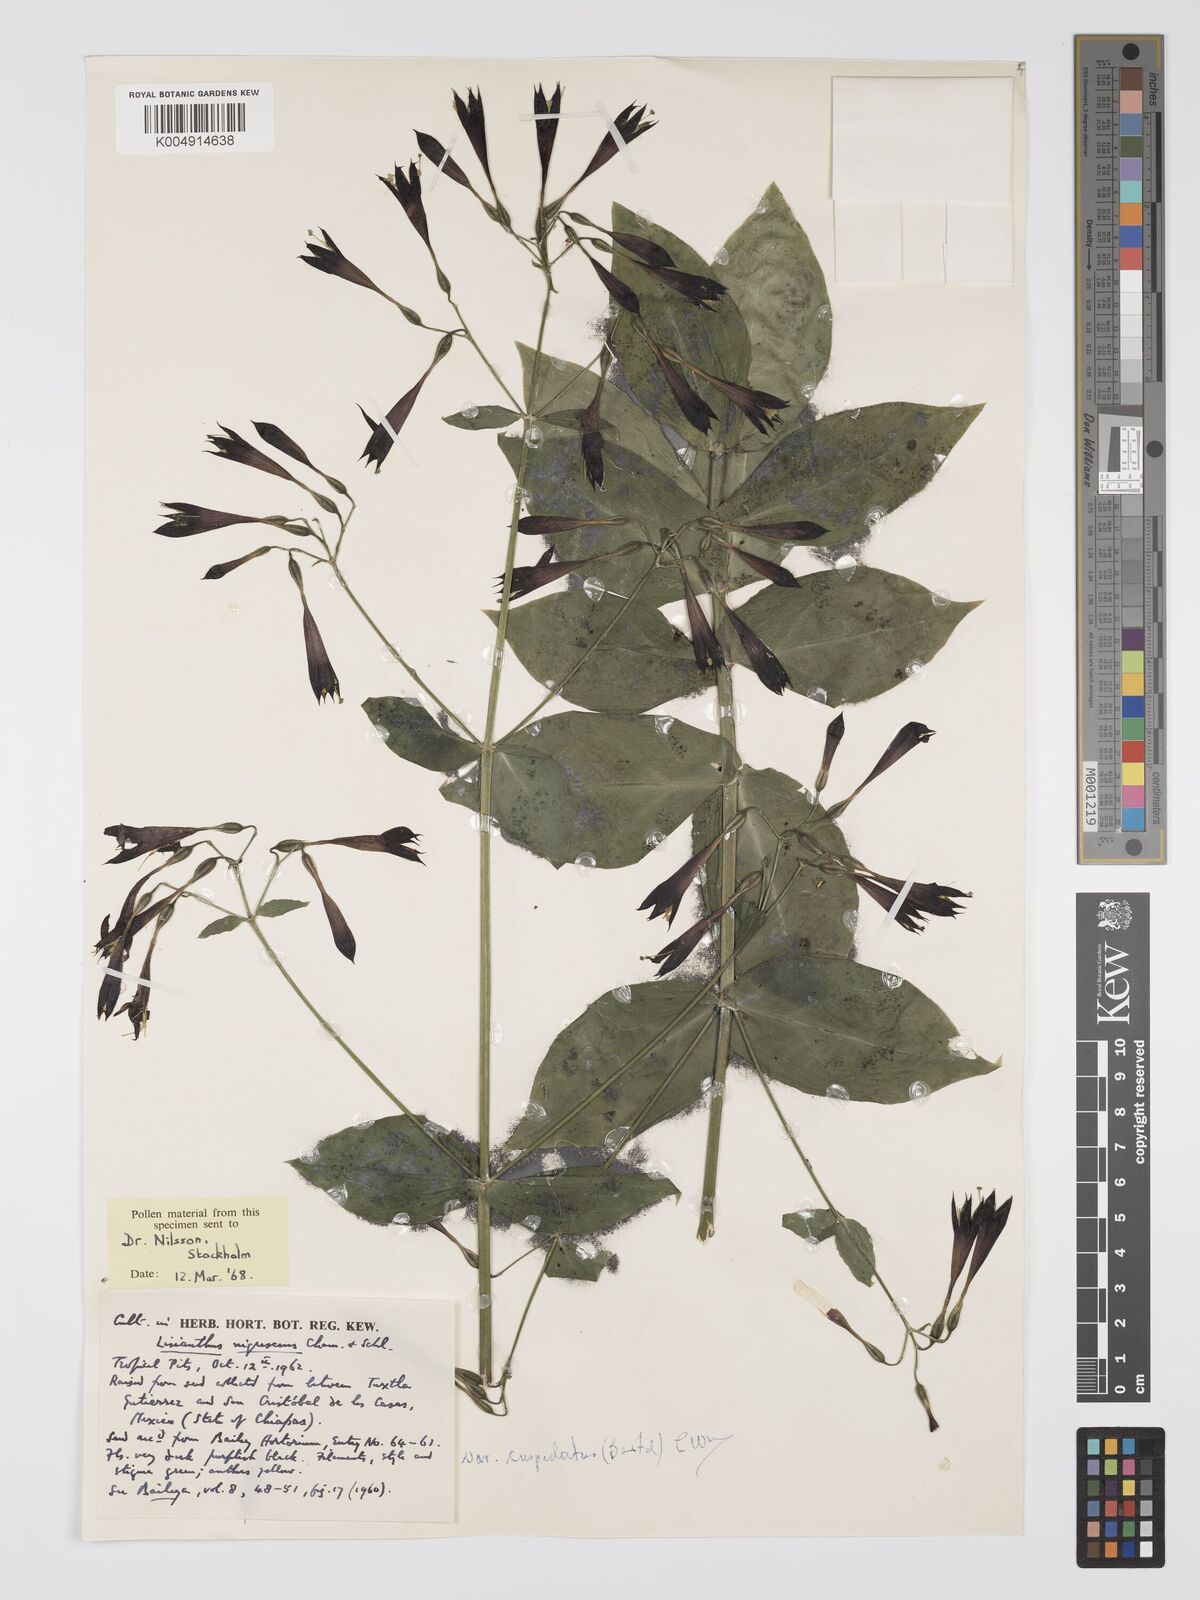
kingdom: Plantae
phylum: Tracheophyta
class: Magnoliopsida
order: Gentianales
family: Gentianaceae
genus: Lisianthius
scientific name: Lisianthius cuspidatus
